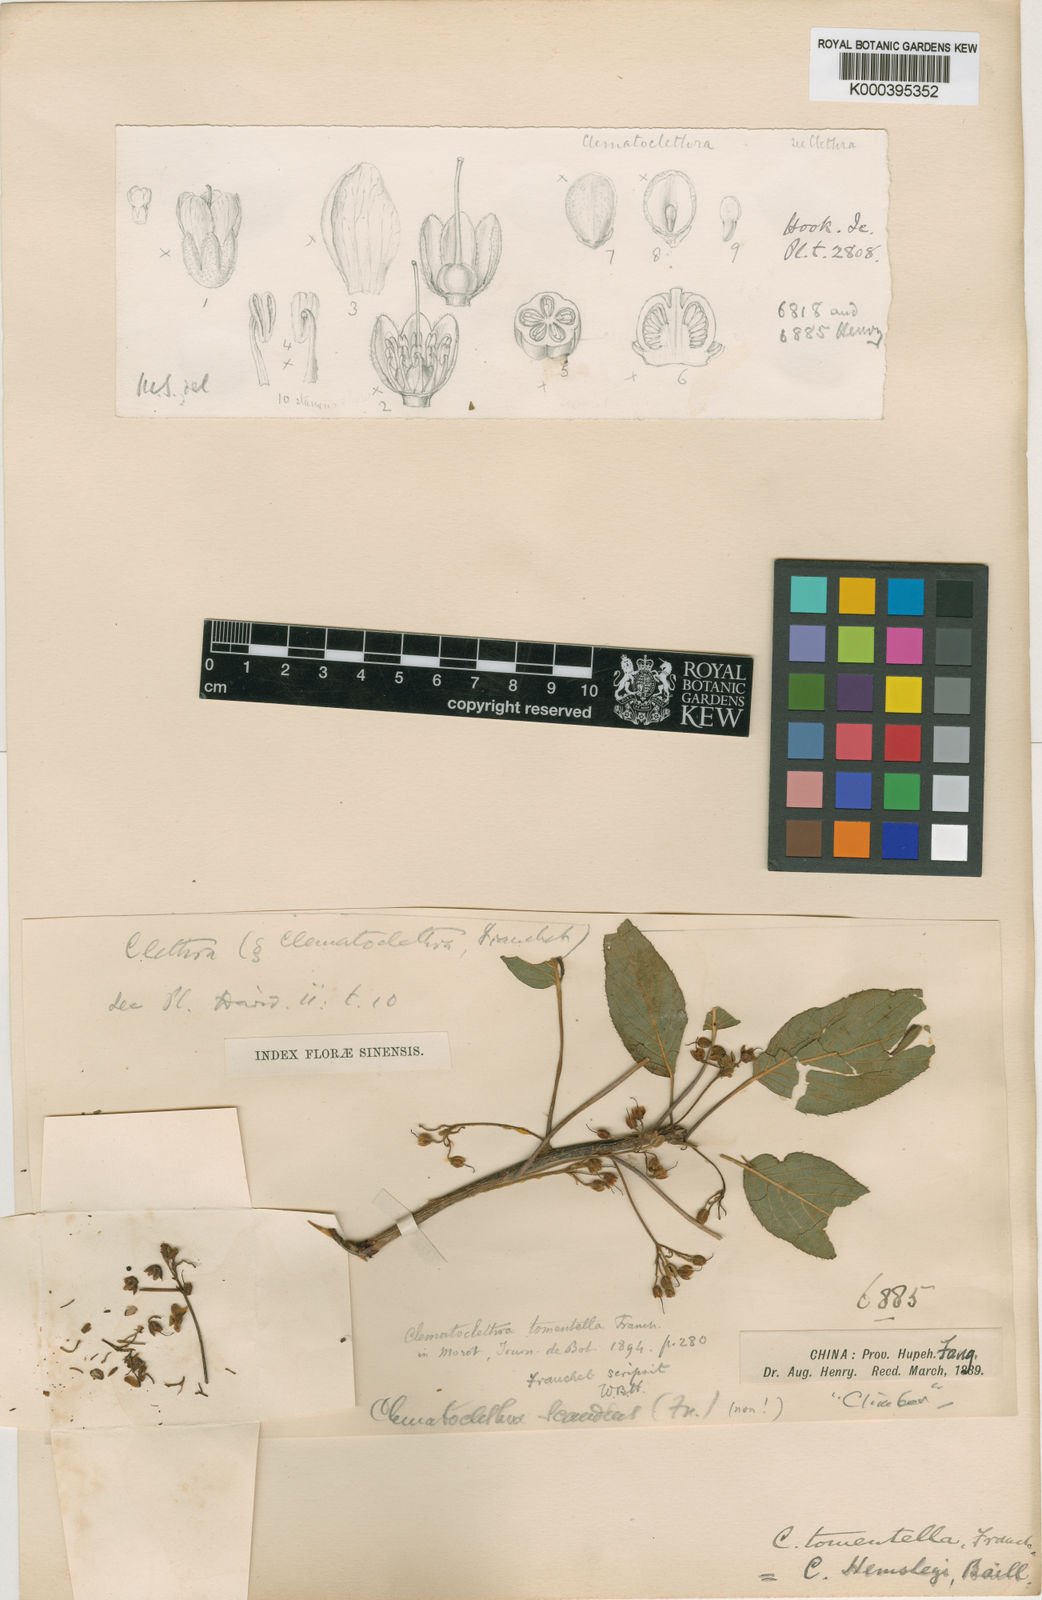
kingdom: Plantae
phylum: Tracheophyta
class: Magnoliopsida
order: Ericales
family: Actinidiaceae
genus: Clematoclethra
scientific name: Clematoclethra scandens
